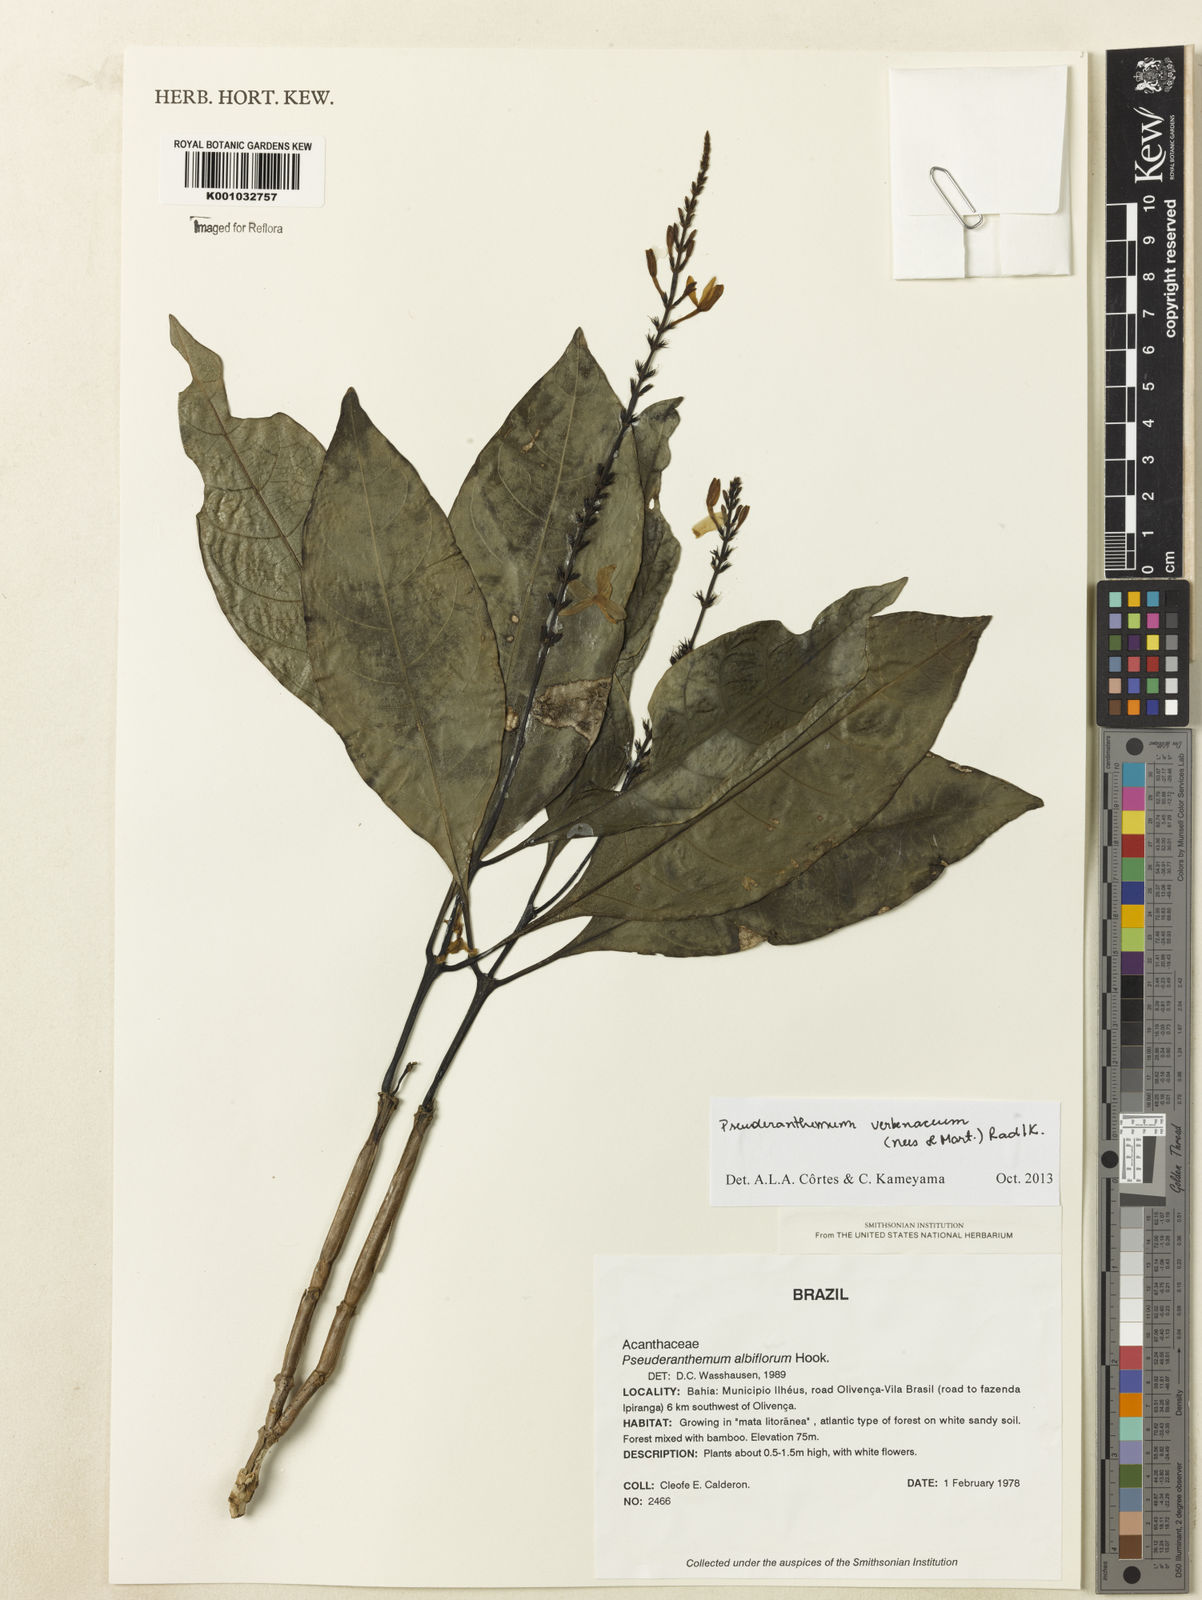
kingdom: Plantae
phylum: Tracheophyta
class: Magnoliopsida
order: Lamiales
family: Acanthaceae
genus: Pseuderanthemum
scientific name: Pseuderanthemum verbenaceum
